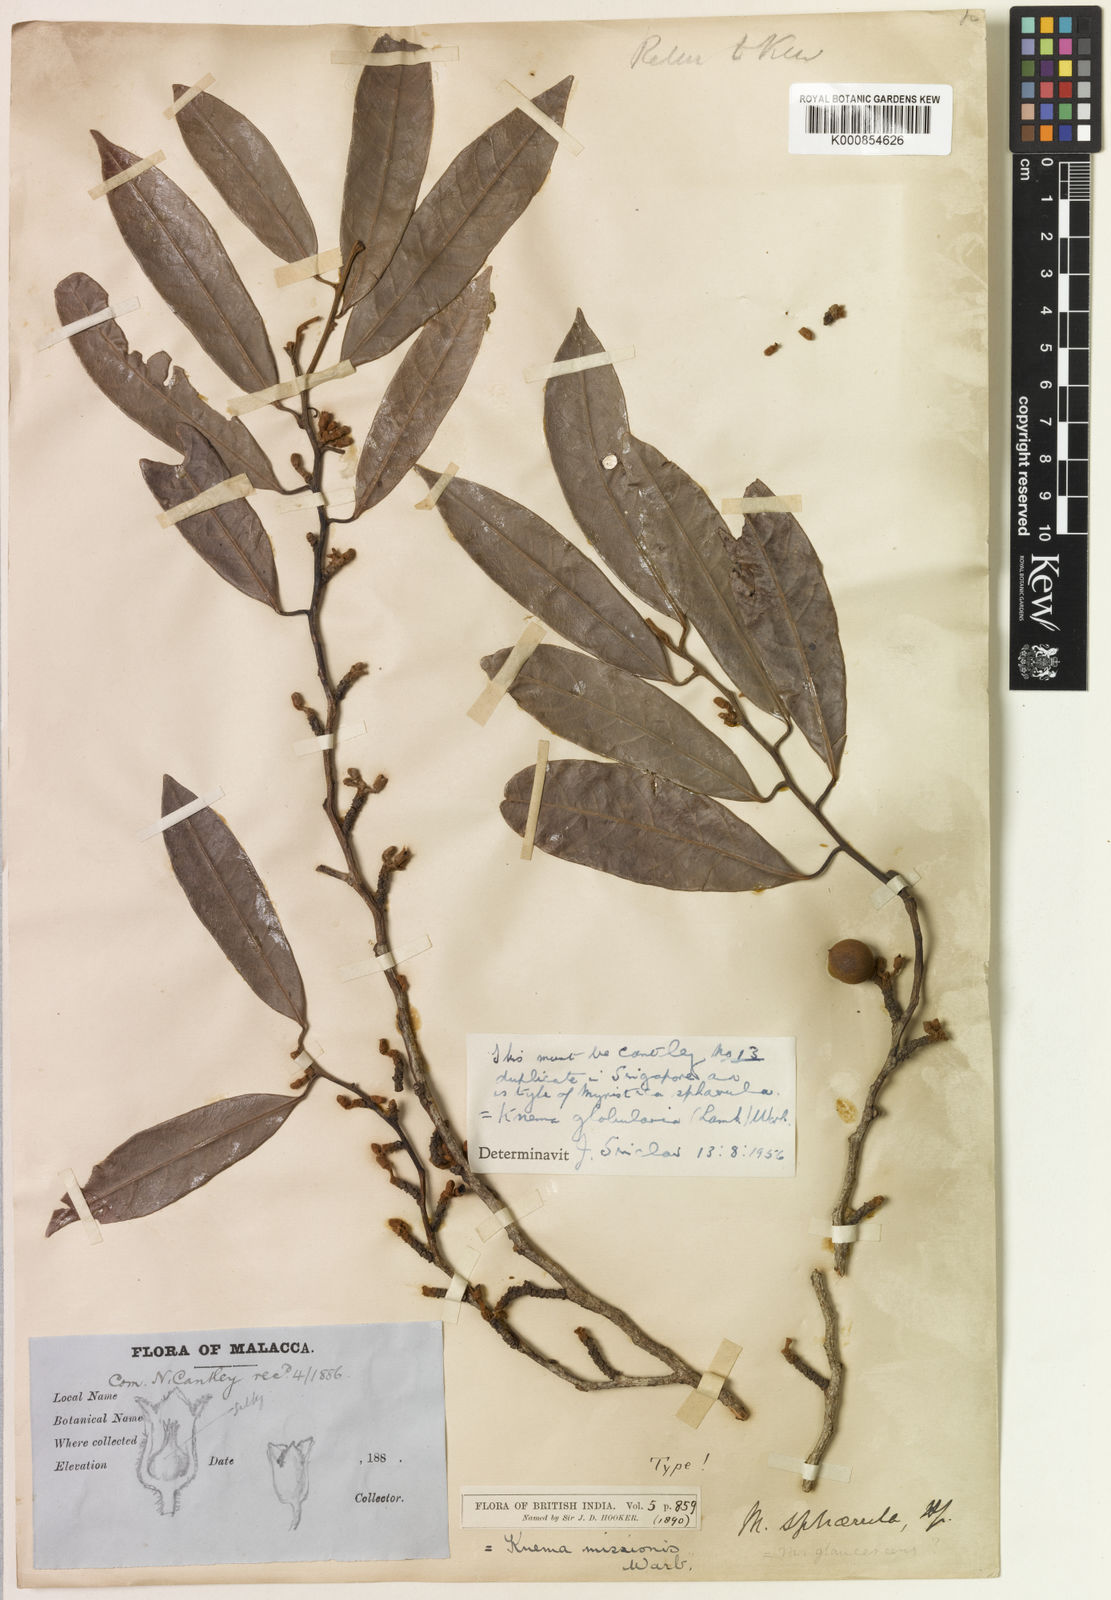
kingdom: Plantae
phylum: Tracheophyta
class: Magnoliopsida
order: Magnoliales
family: Myristicaceae
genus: Knema
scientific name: Knema globularia
